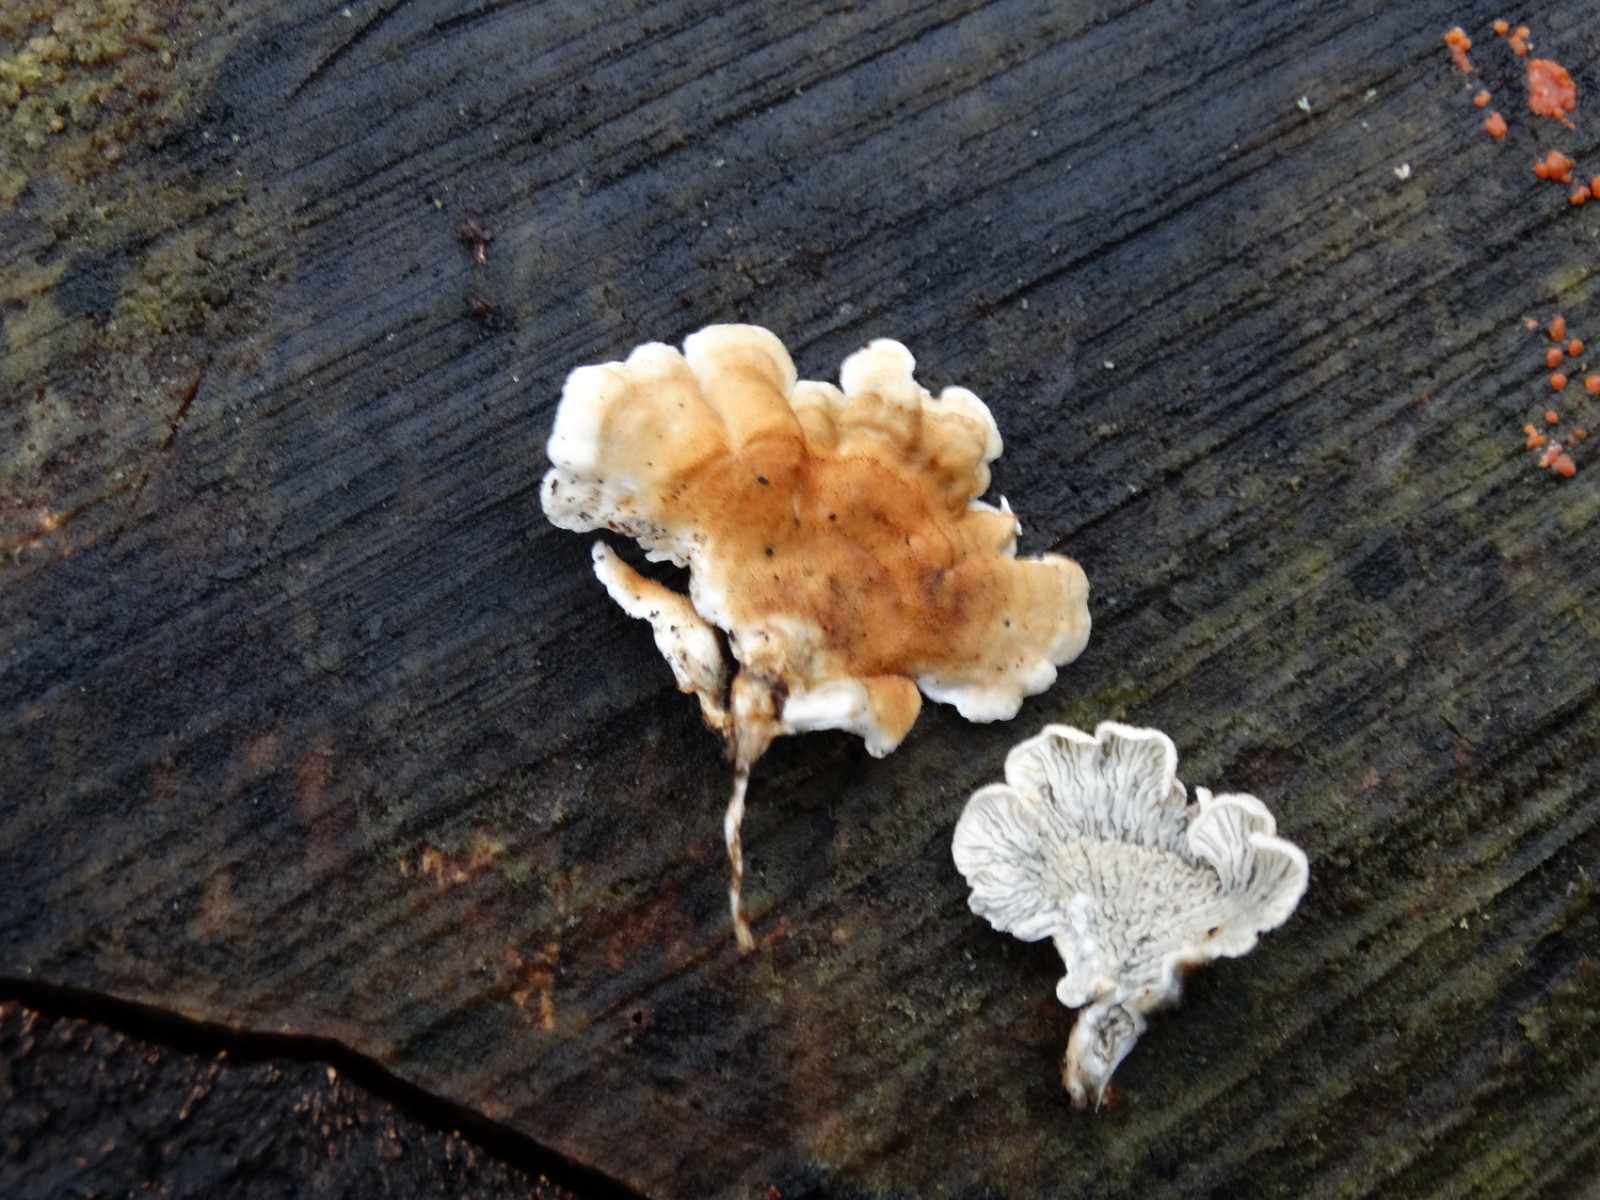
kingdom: Fungi
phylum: Basidiomycota
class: Agaricomycetes
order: Amylocorticiales
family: Amylocorticiaceae
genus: Plicaturopsis
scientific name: Plicaturopsis crispa
